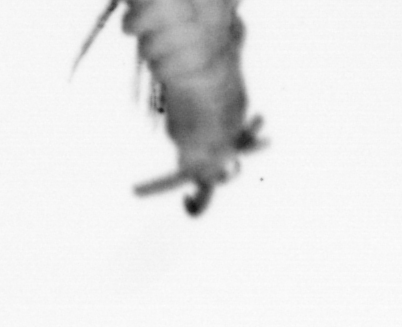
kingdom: Animalia
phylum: Annelida
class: Polychaeta
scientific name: Polychaeta
